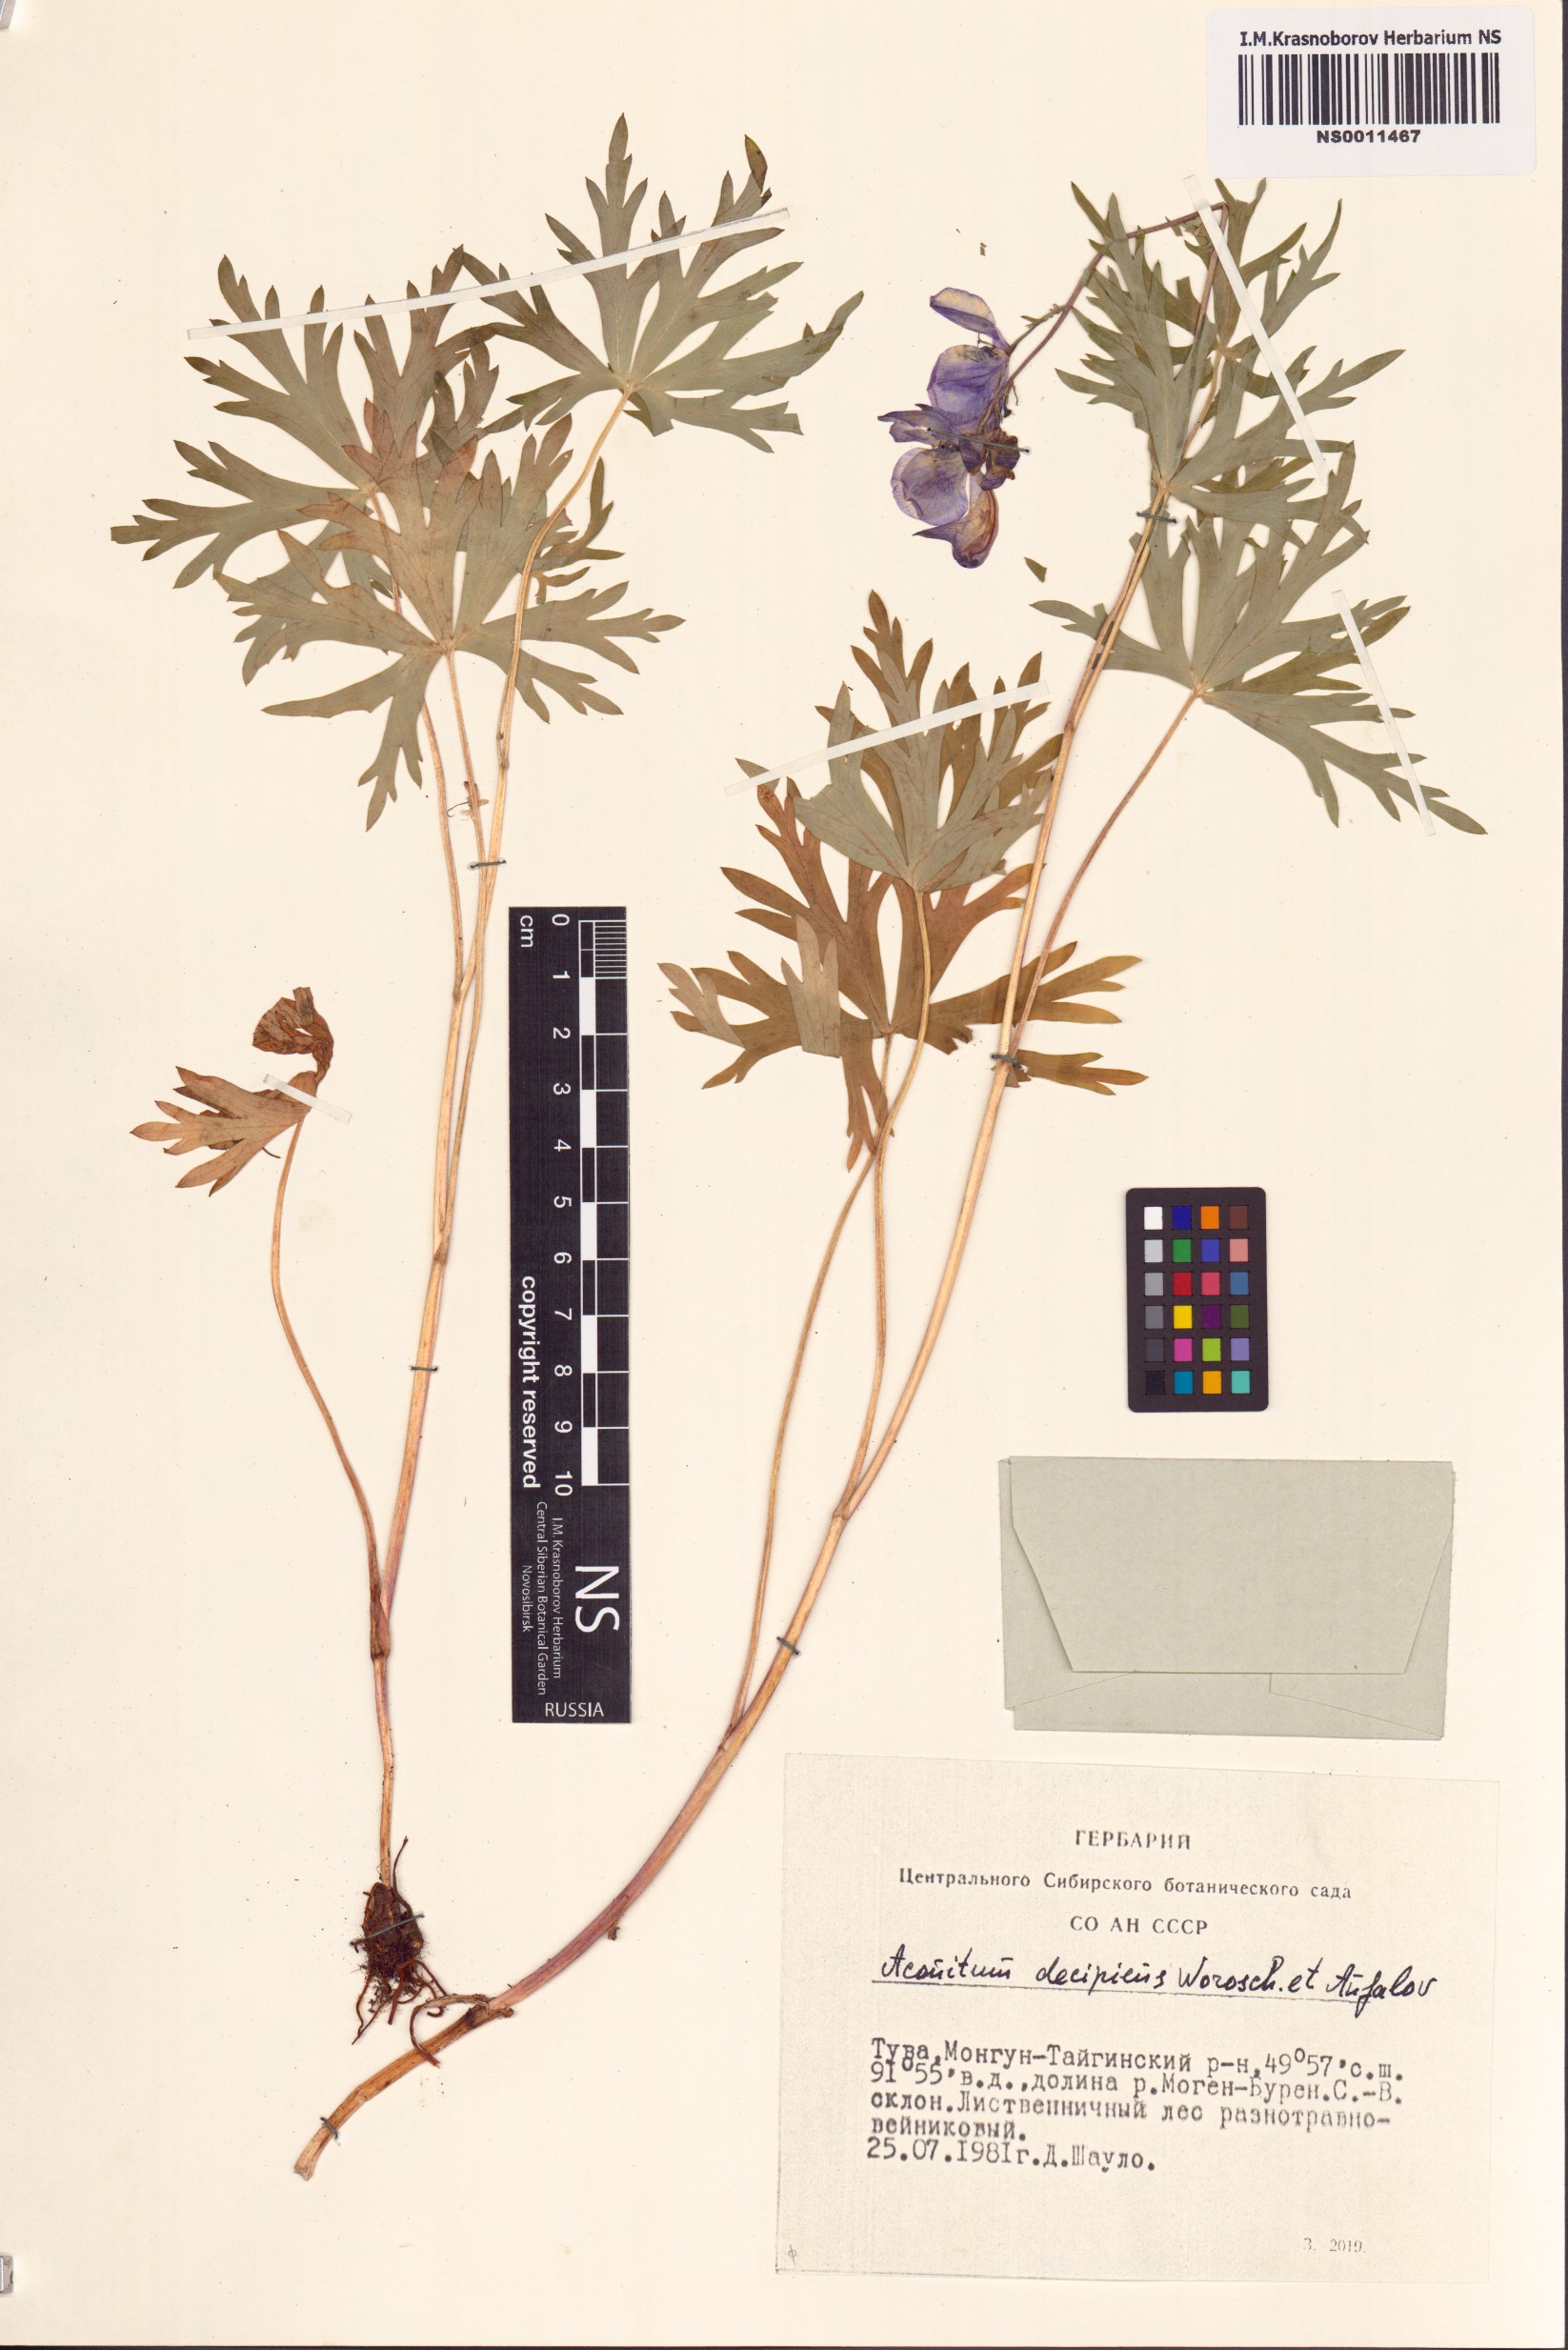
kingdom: Plantae
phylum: Tracheophyta
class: Magnoliopsida
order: Ranunculales
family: Ranunculaceae
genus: Aconitum
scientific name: Aconitum decipiens
